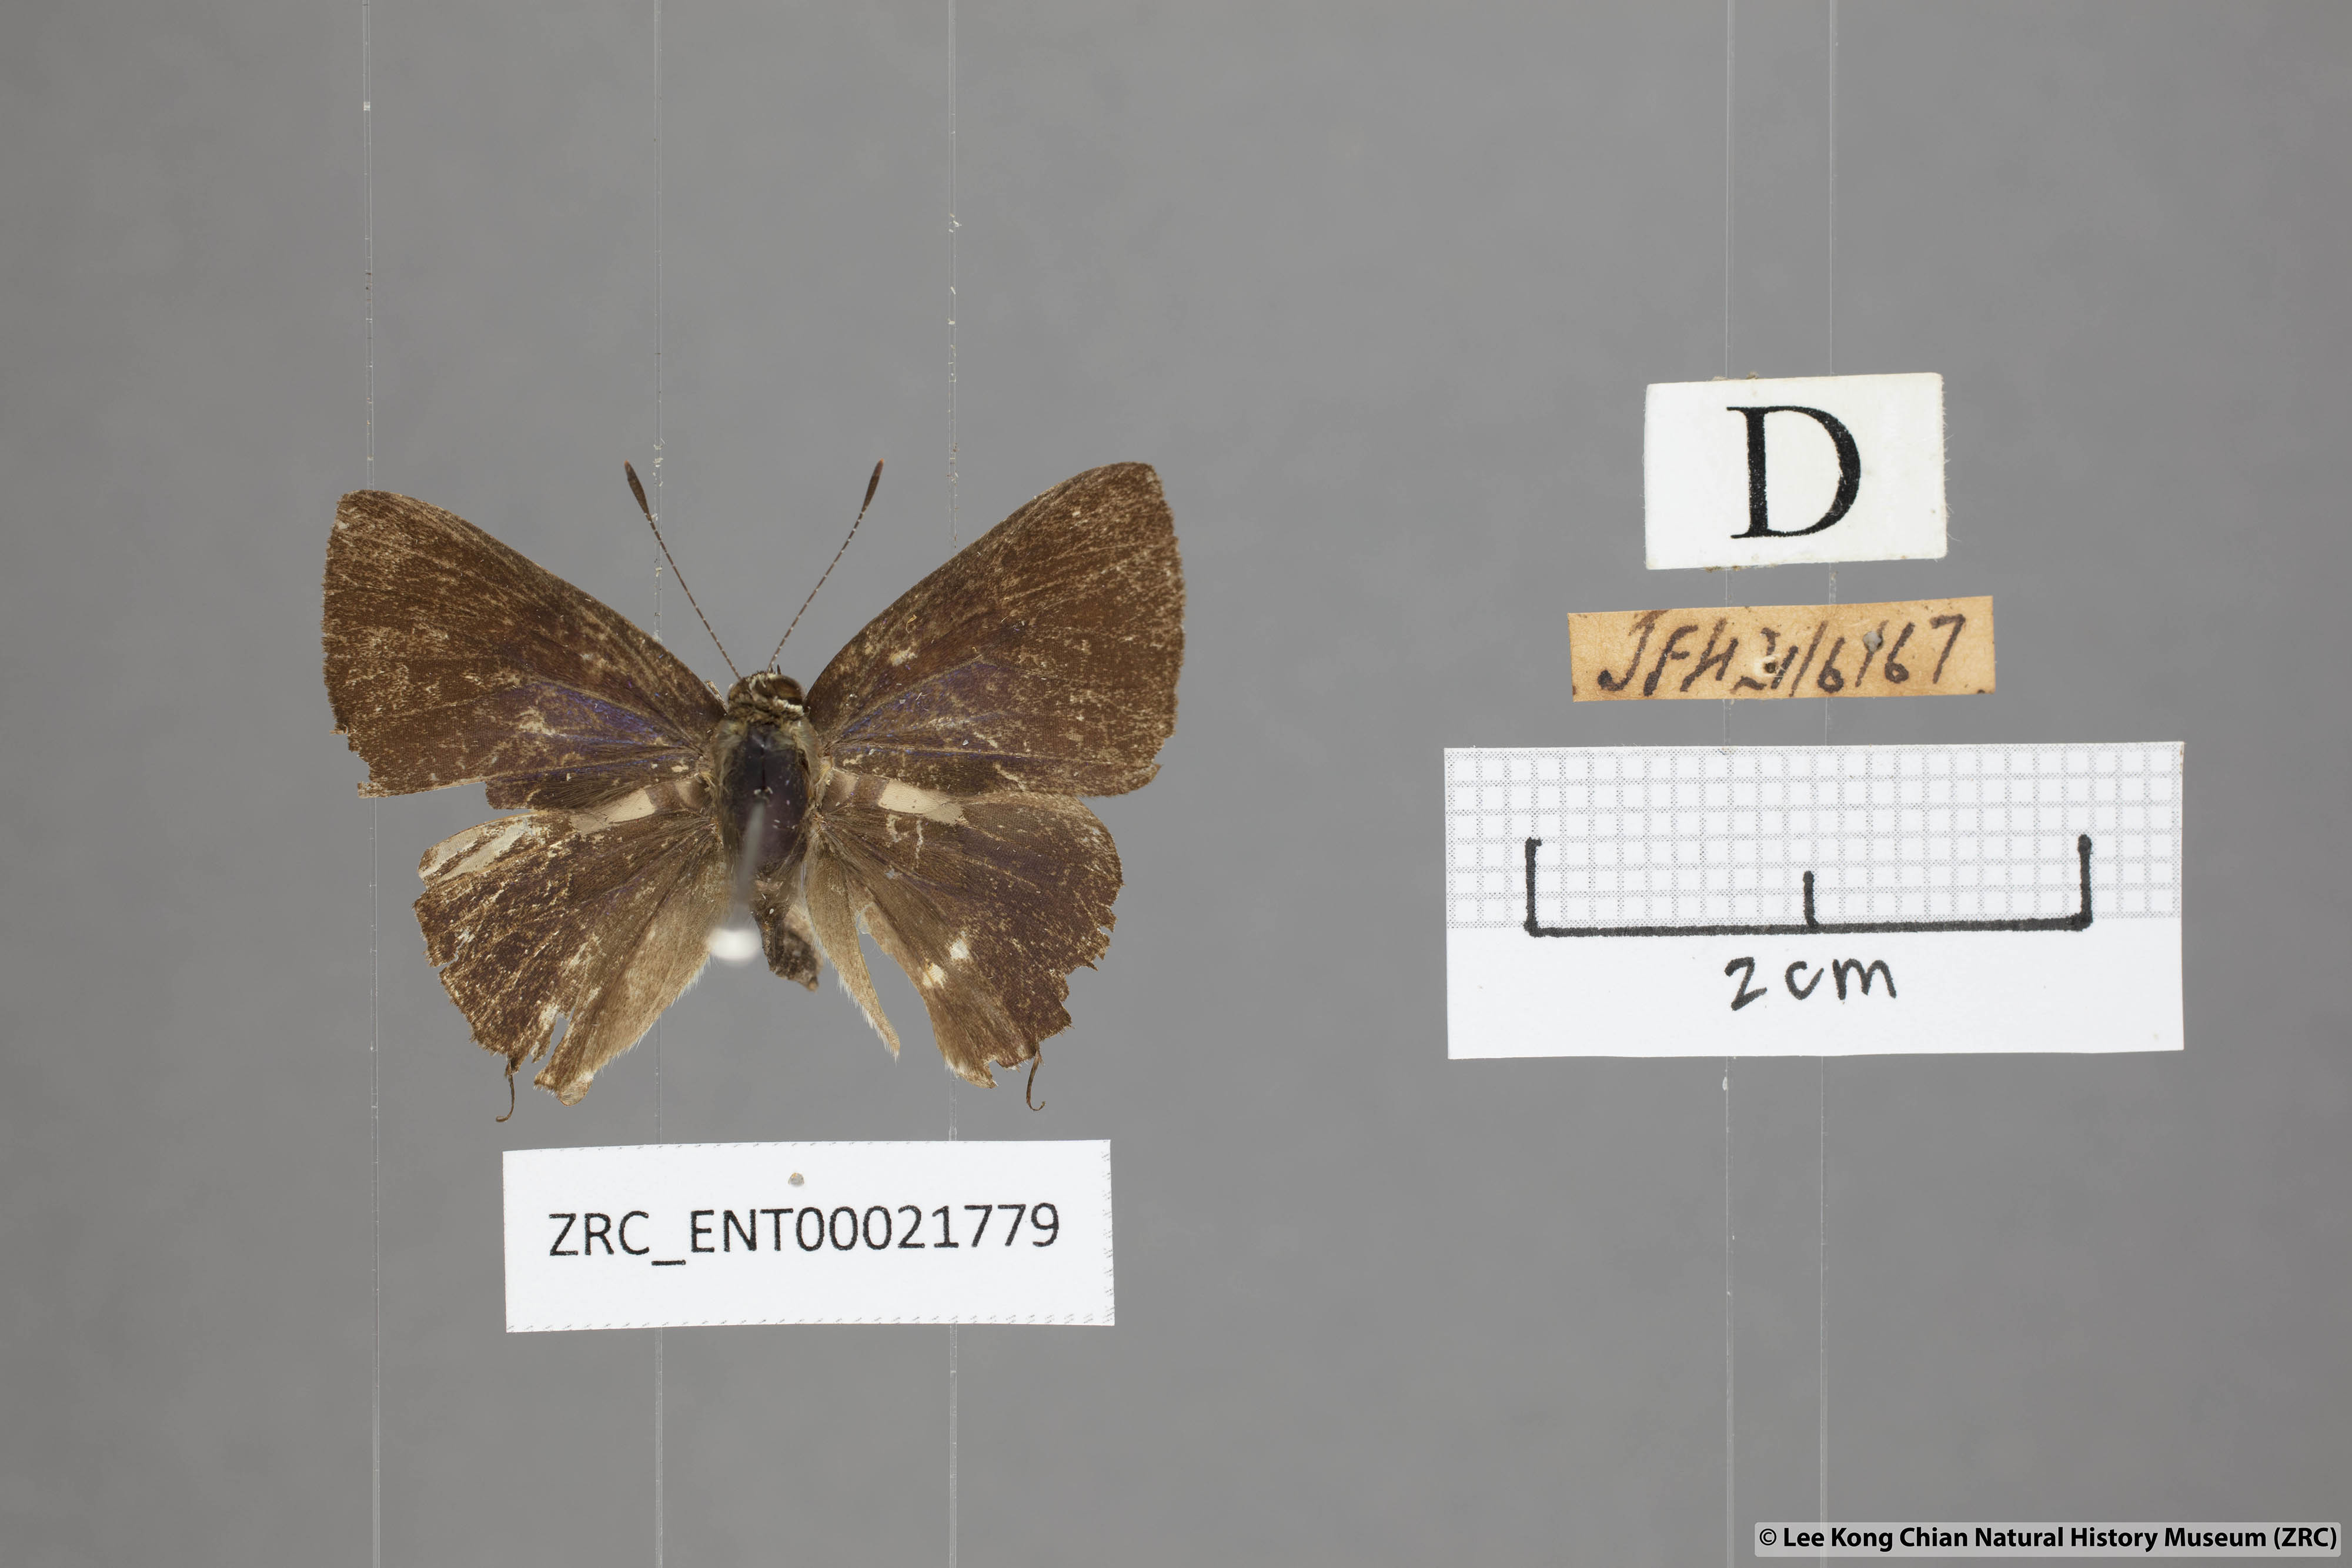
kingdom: Animalia
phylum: Arthropoda
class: Insecta
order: Lepidoptera
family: Lycaenidae
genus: Rapala
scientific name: Rapala
